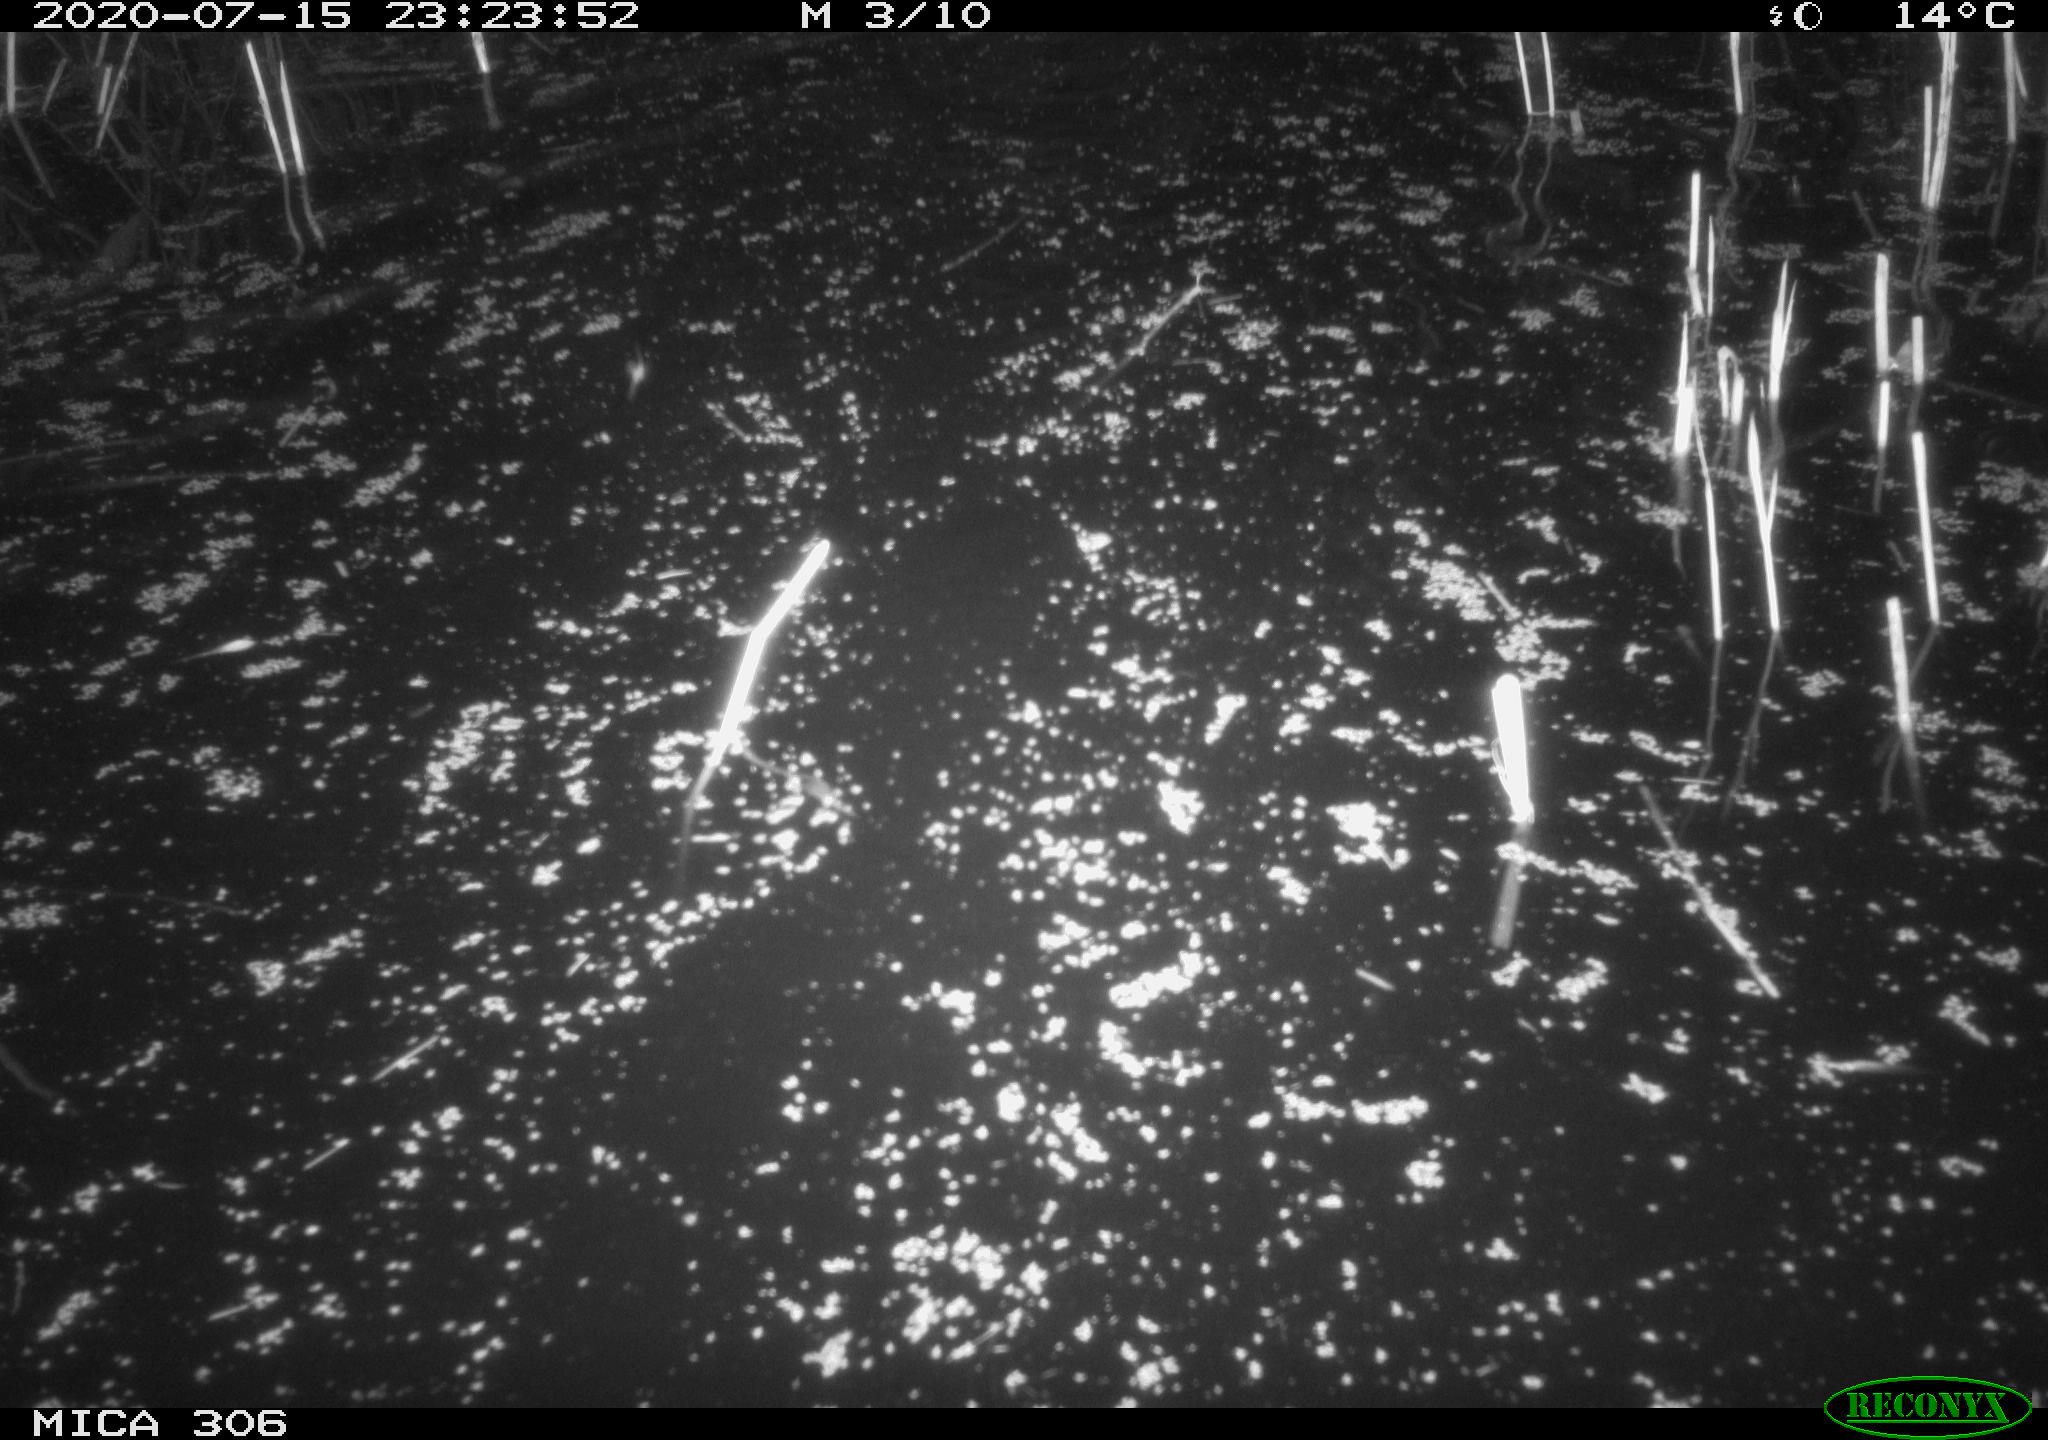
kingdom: Animalia
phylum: Chordata
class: Mammalia
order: Rodentia
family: Cricetidae
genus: Ondatra
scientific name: Ondatra zibethicus
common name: Muskrat
